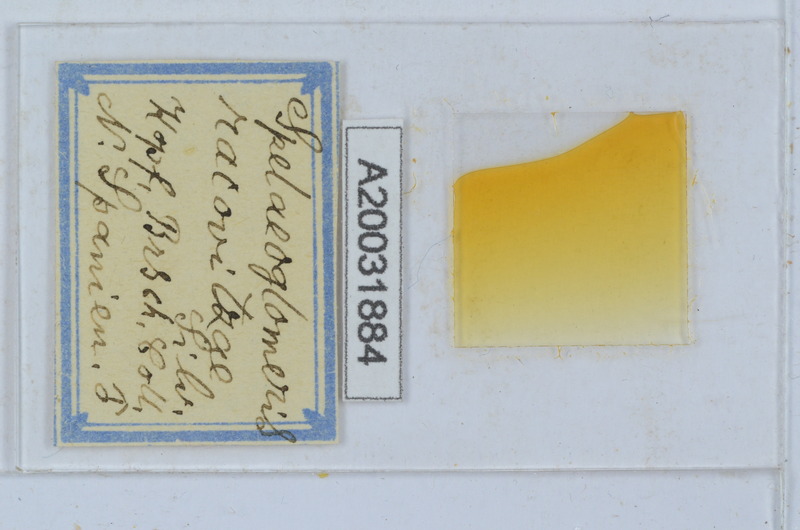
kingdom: Animalia
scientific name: Animalia
